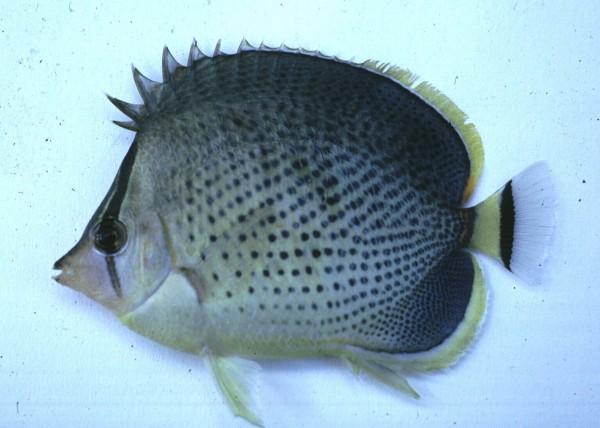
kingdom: Animalia
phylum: Chordata
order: Perciformes
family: Chaetodontidae
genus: Chaetodon
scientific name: Chaetodon guttatissimus
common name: Spotted butterflyfish
